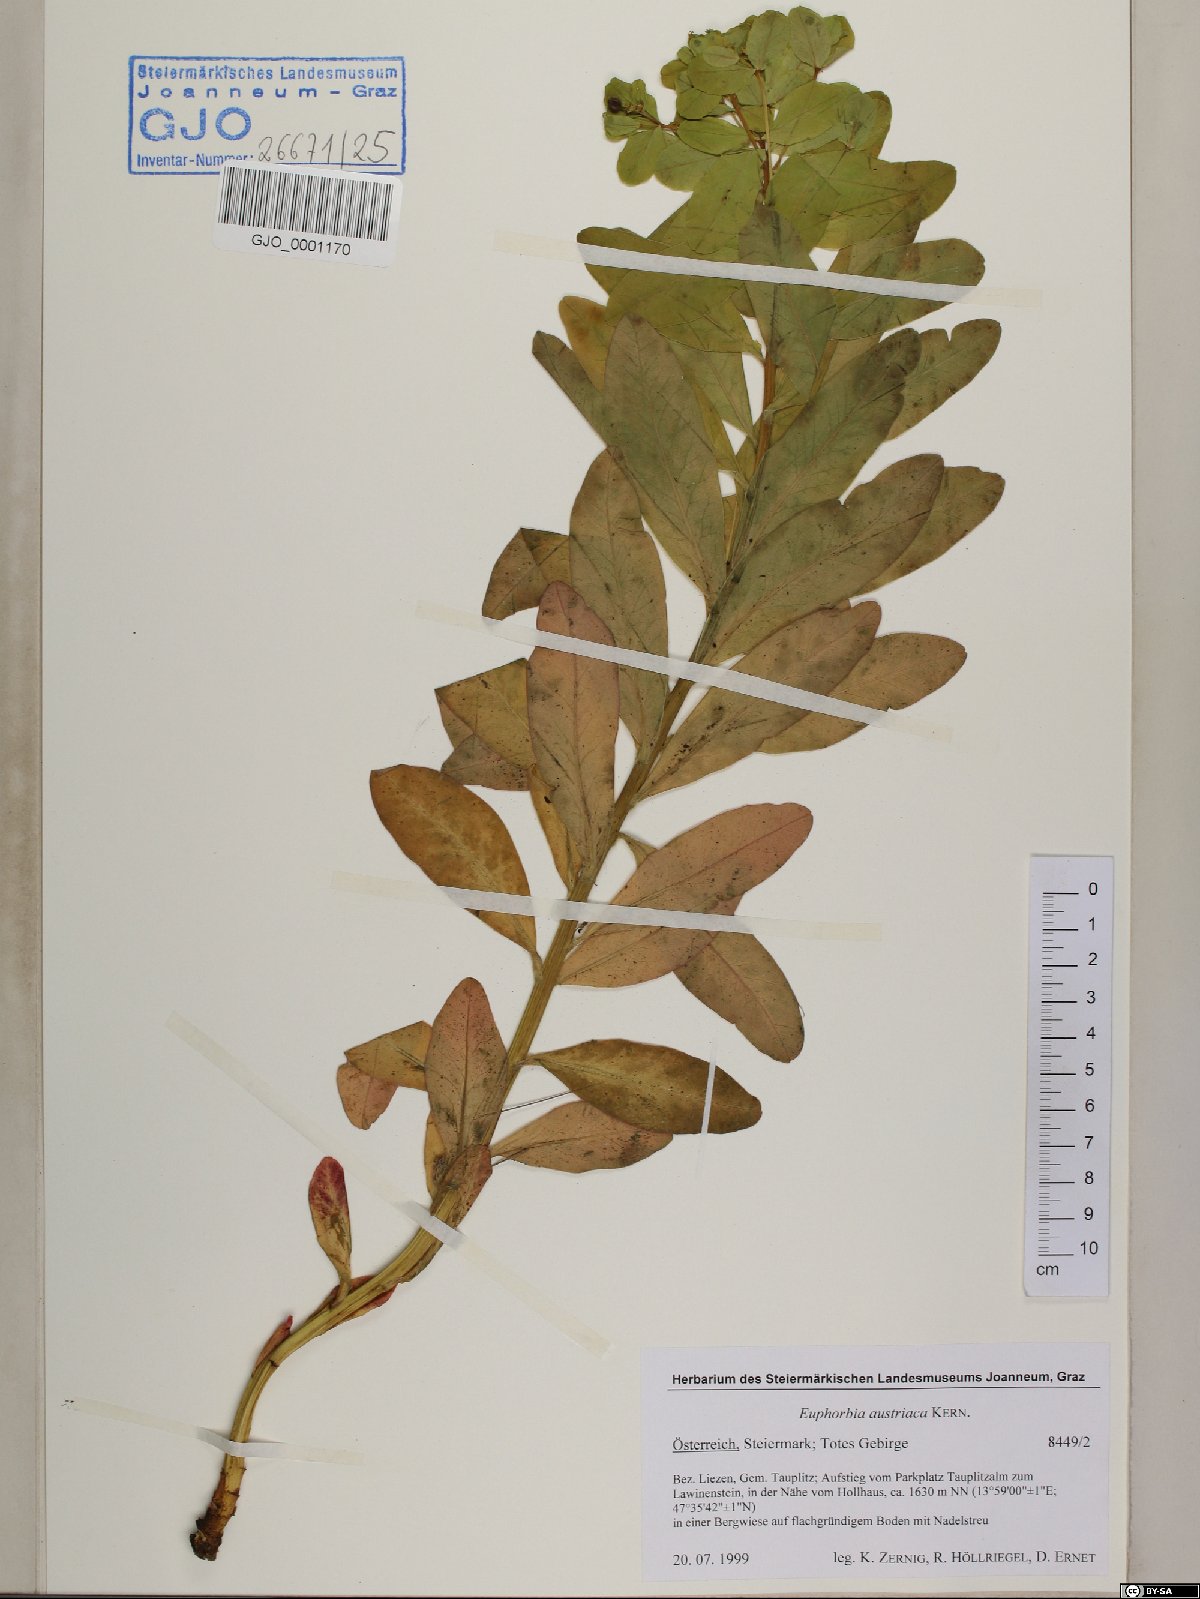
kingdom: Plantae
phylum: Tracheophyta
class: Magnoliopsida
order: Malpighiales
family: Euphorbiaceae
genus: Euphorbia
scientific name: Euphorbia austriaca
